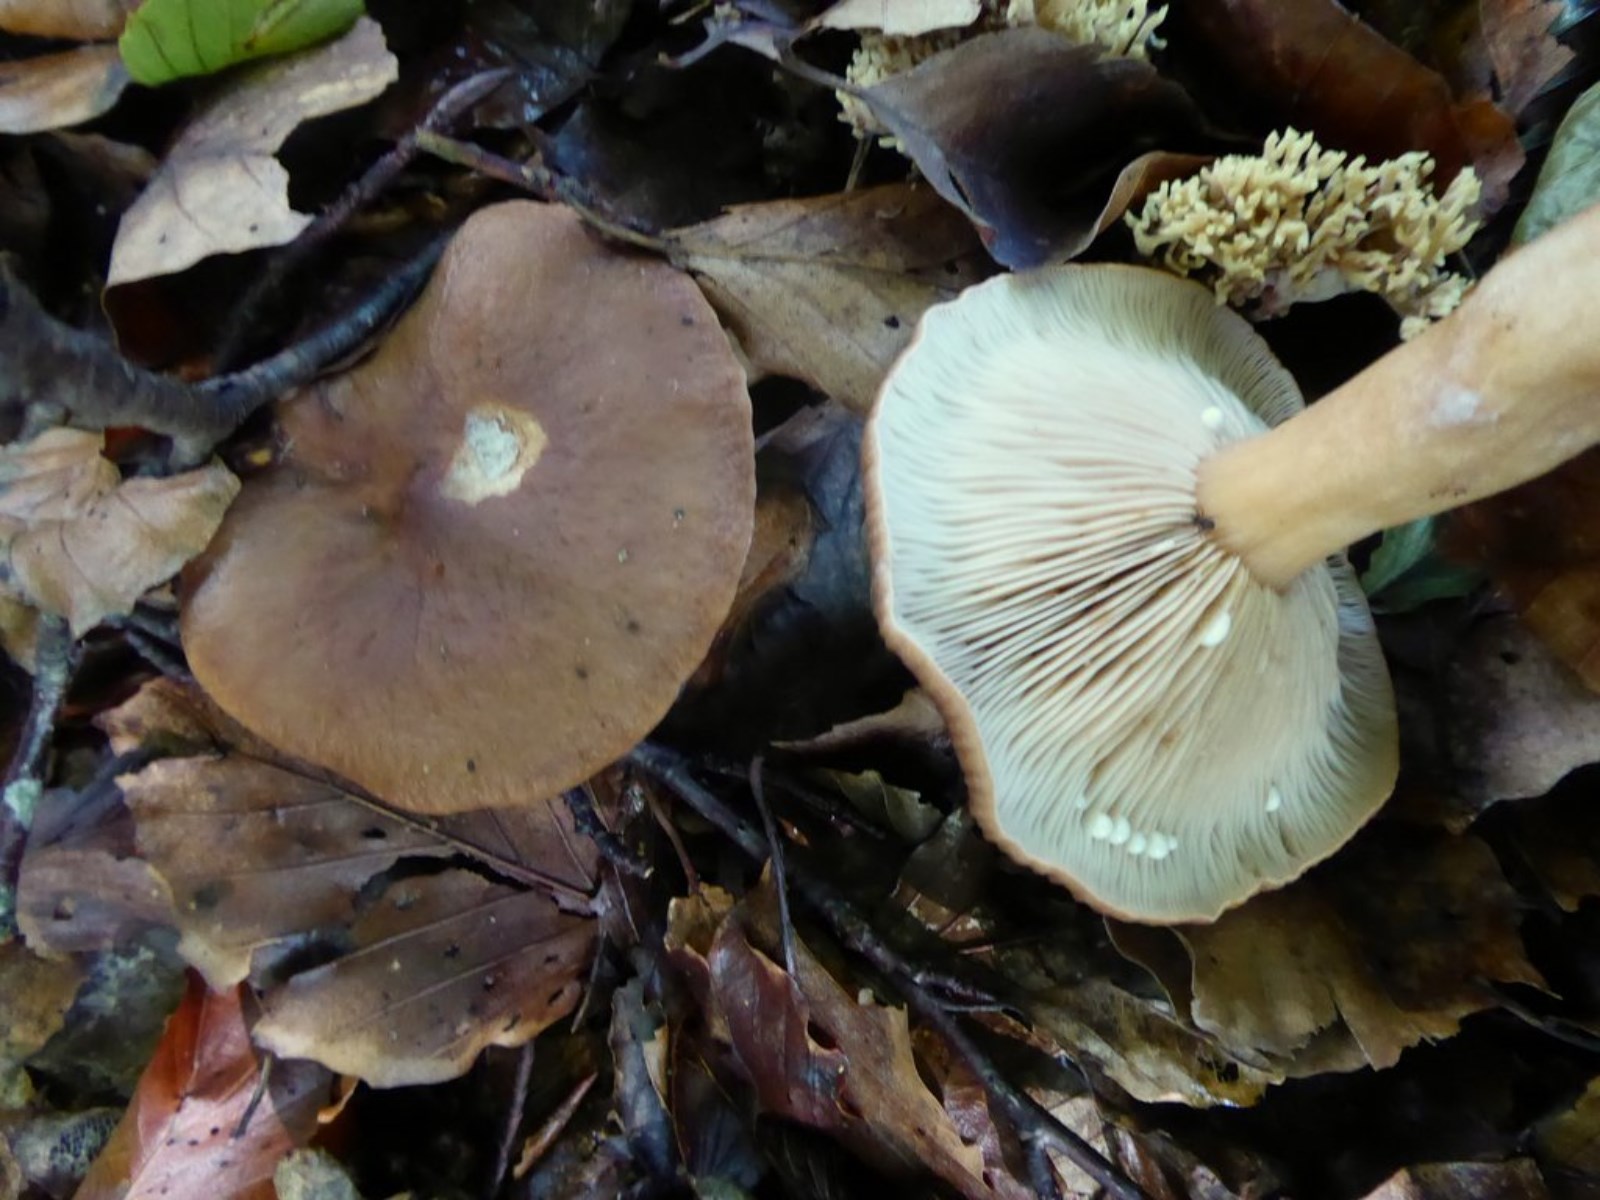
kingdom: Fungi
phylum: Basidiomycota
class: Agaricomycetes
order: Russulales
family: Russulaceae
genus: Lactarius
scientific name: Lactarius subdulcis
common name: sødlig mælkehat
